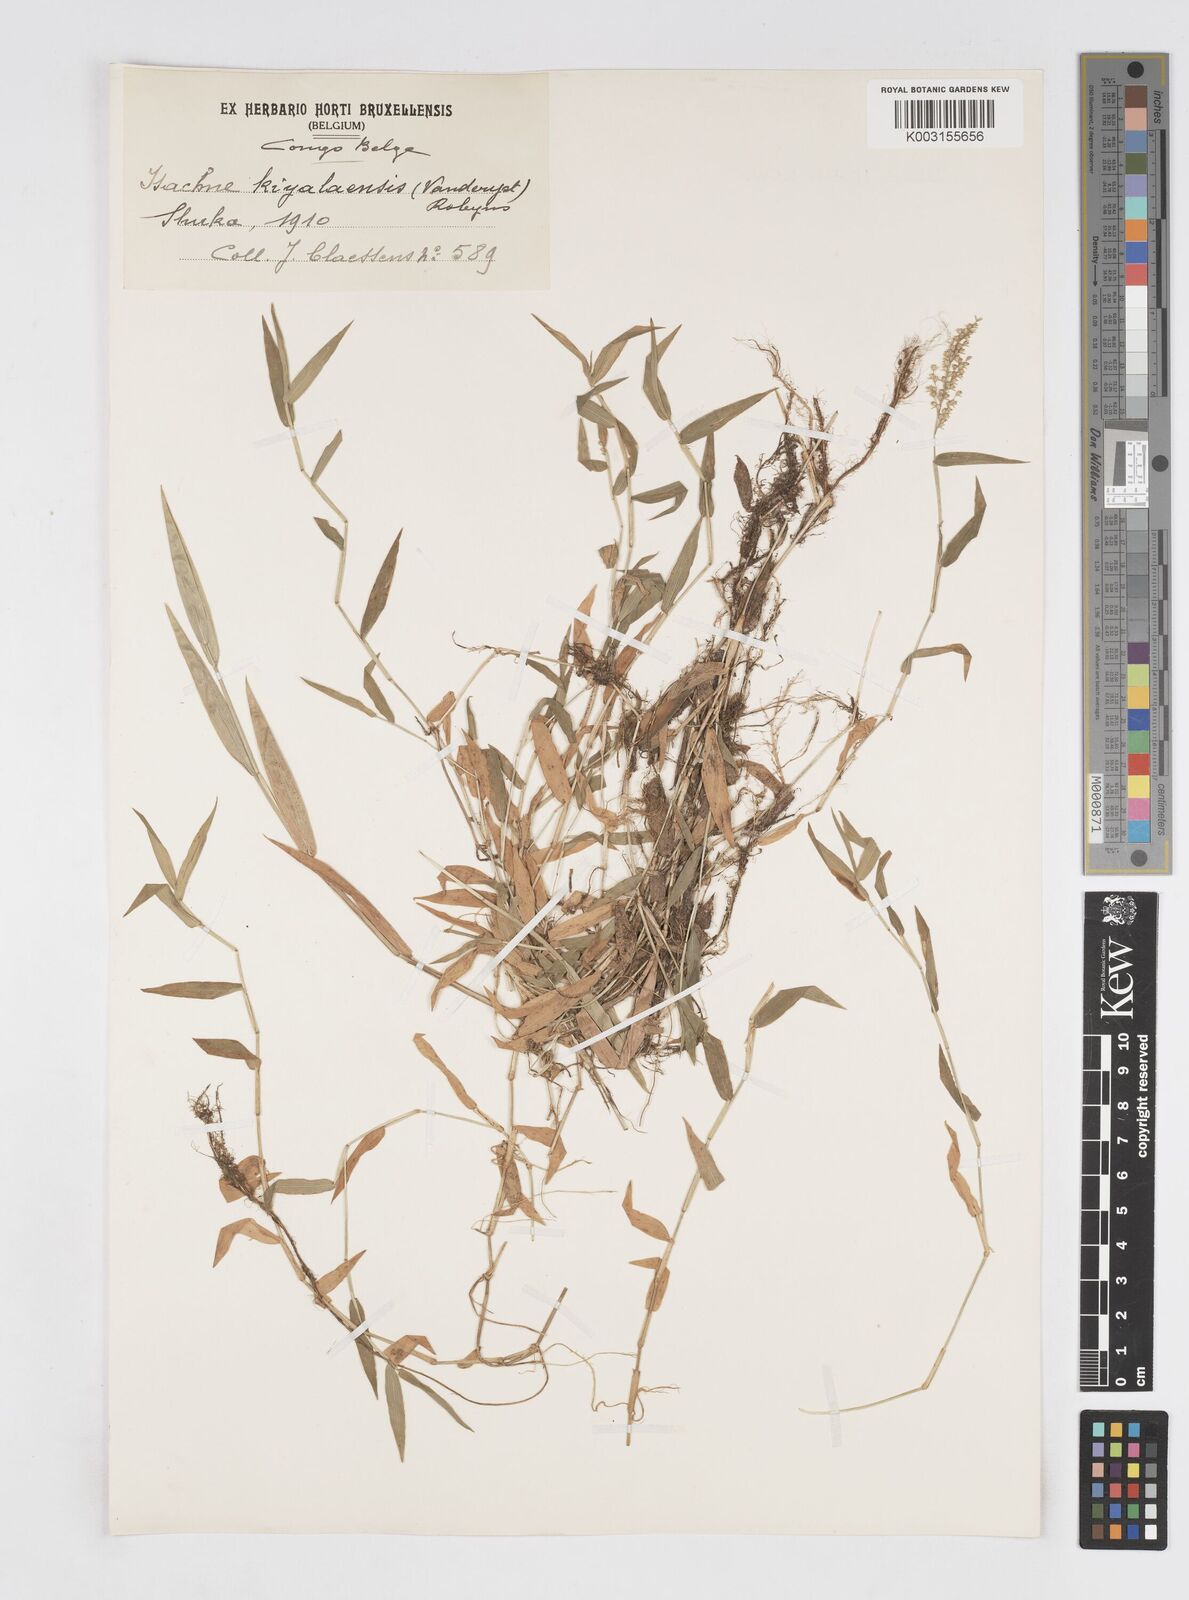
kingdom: Plantae
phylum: Tracheophyta
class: Liliopsida
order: Poales
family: Poaceae
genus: Isachne
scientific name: Isachne kiyalaensis
